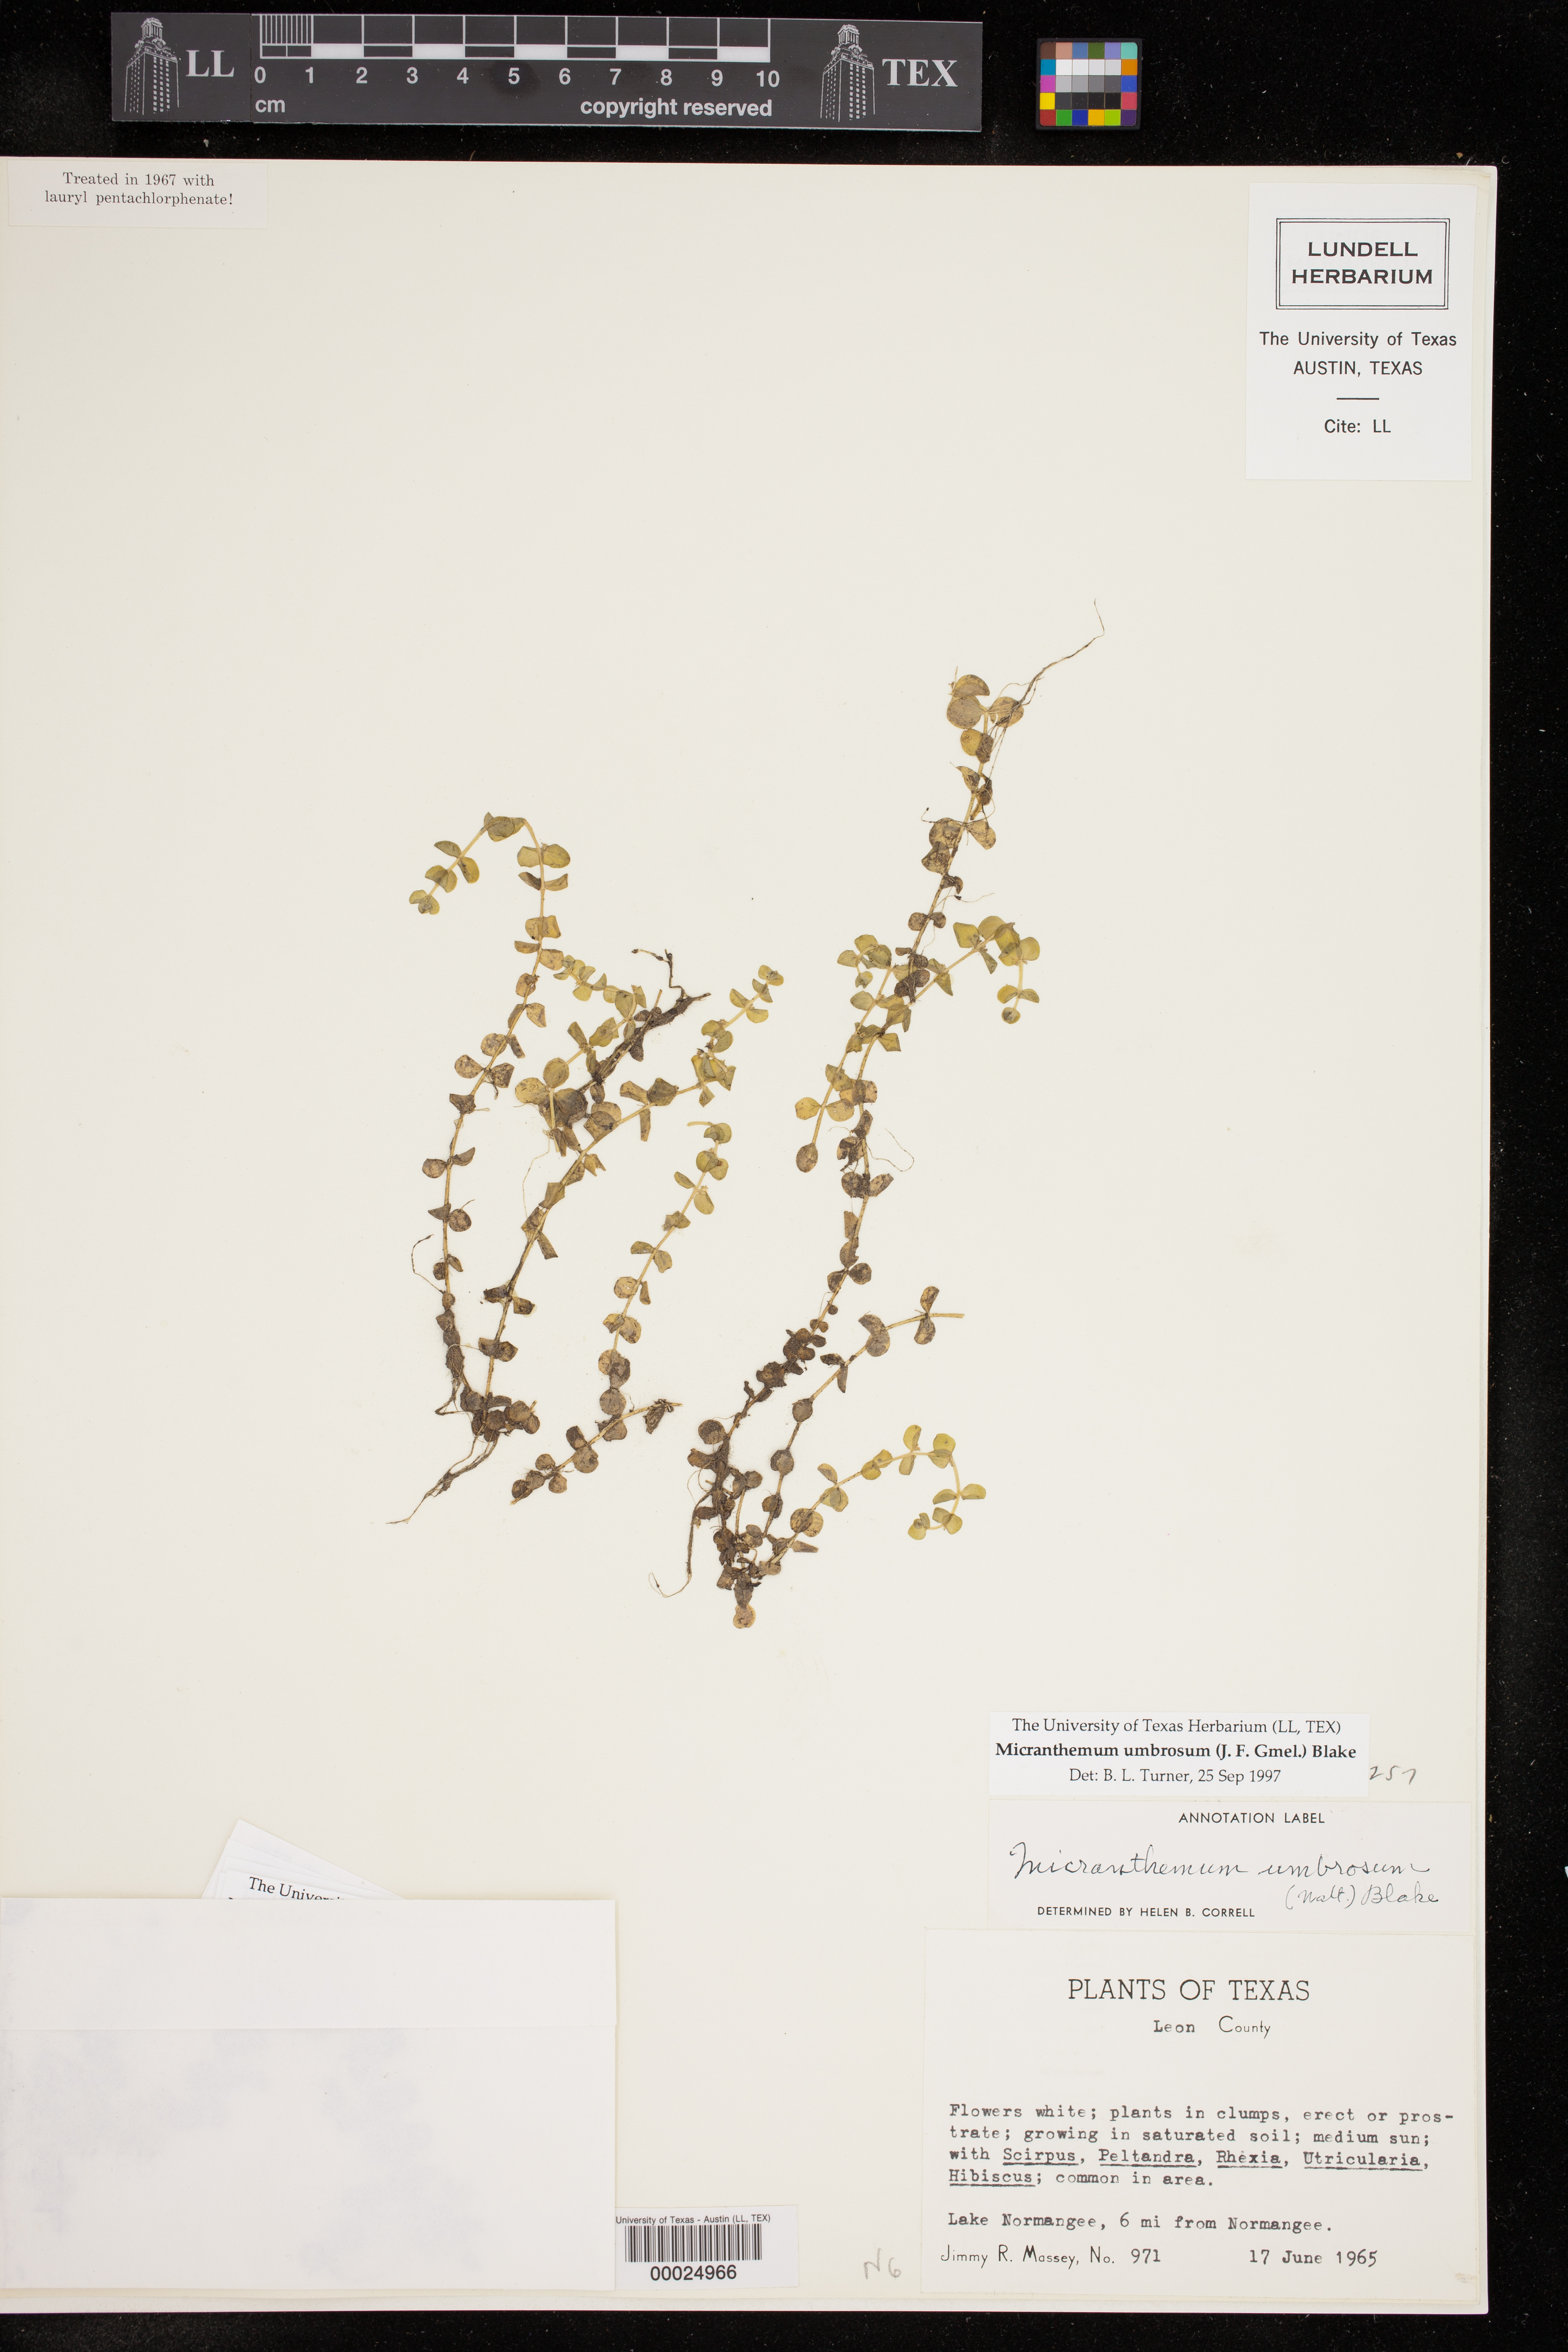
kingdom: Plantae
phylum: Tracheophyta
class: Magnoliopsida
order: Lamiales
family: Linderniaceae
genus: Micranthemum
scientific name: Micranthemum umbrosum
